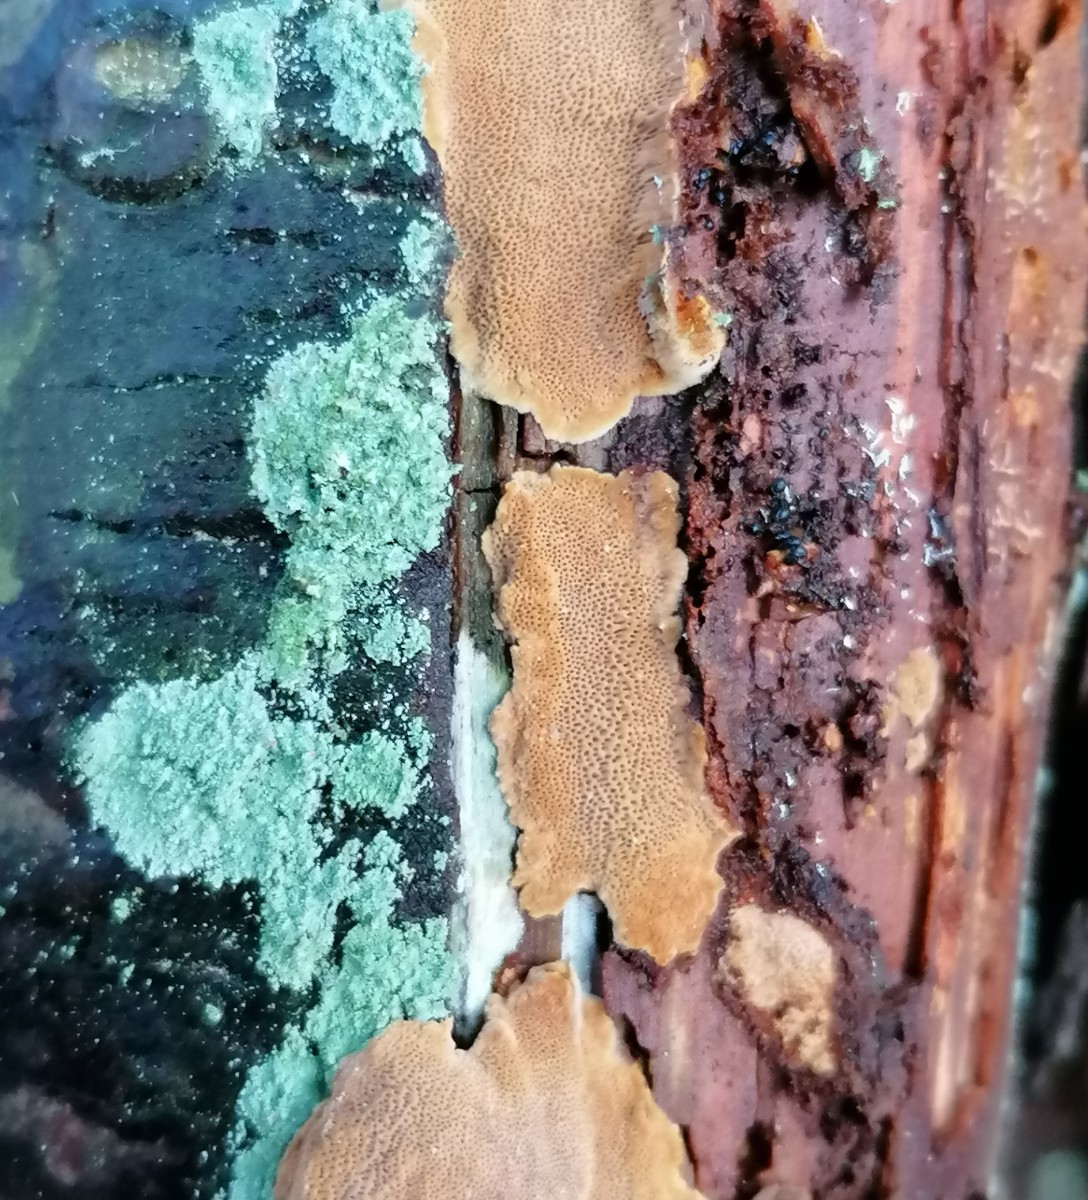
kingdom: Fungi
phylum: Basidiomycota
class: Agaricomycetes
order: Hymenochaetales
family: Hymenochaetaceae
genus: Fuscoporia
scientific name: Fuscoporia ferrea
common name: skorpe-ildporesvamp
